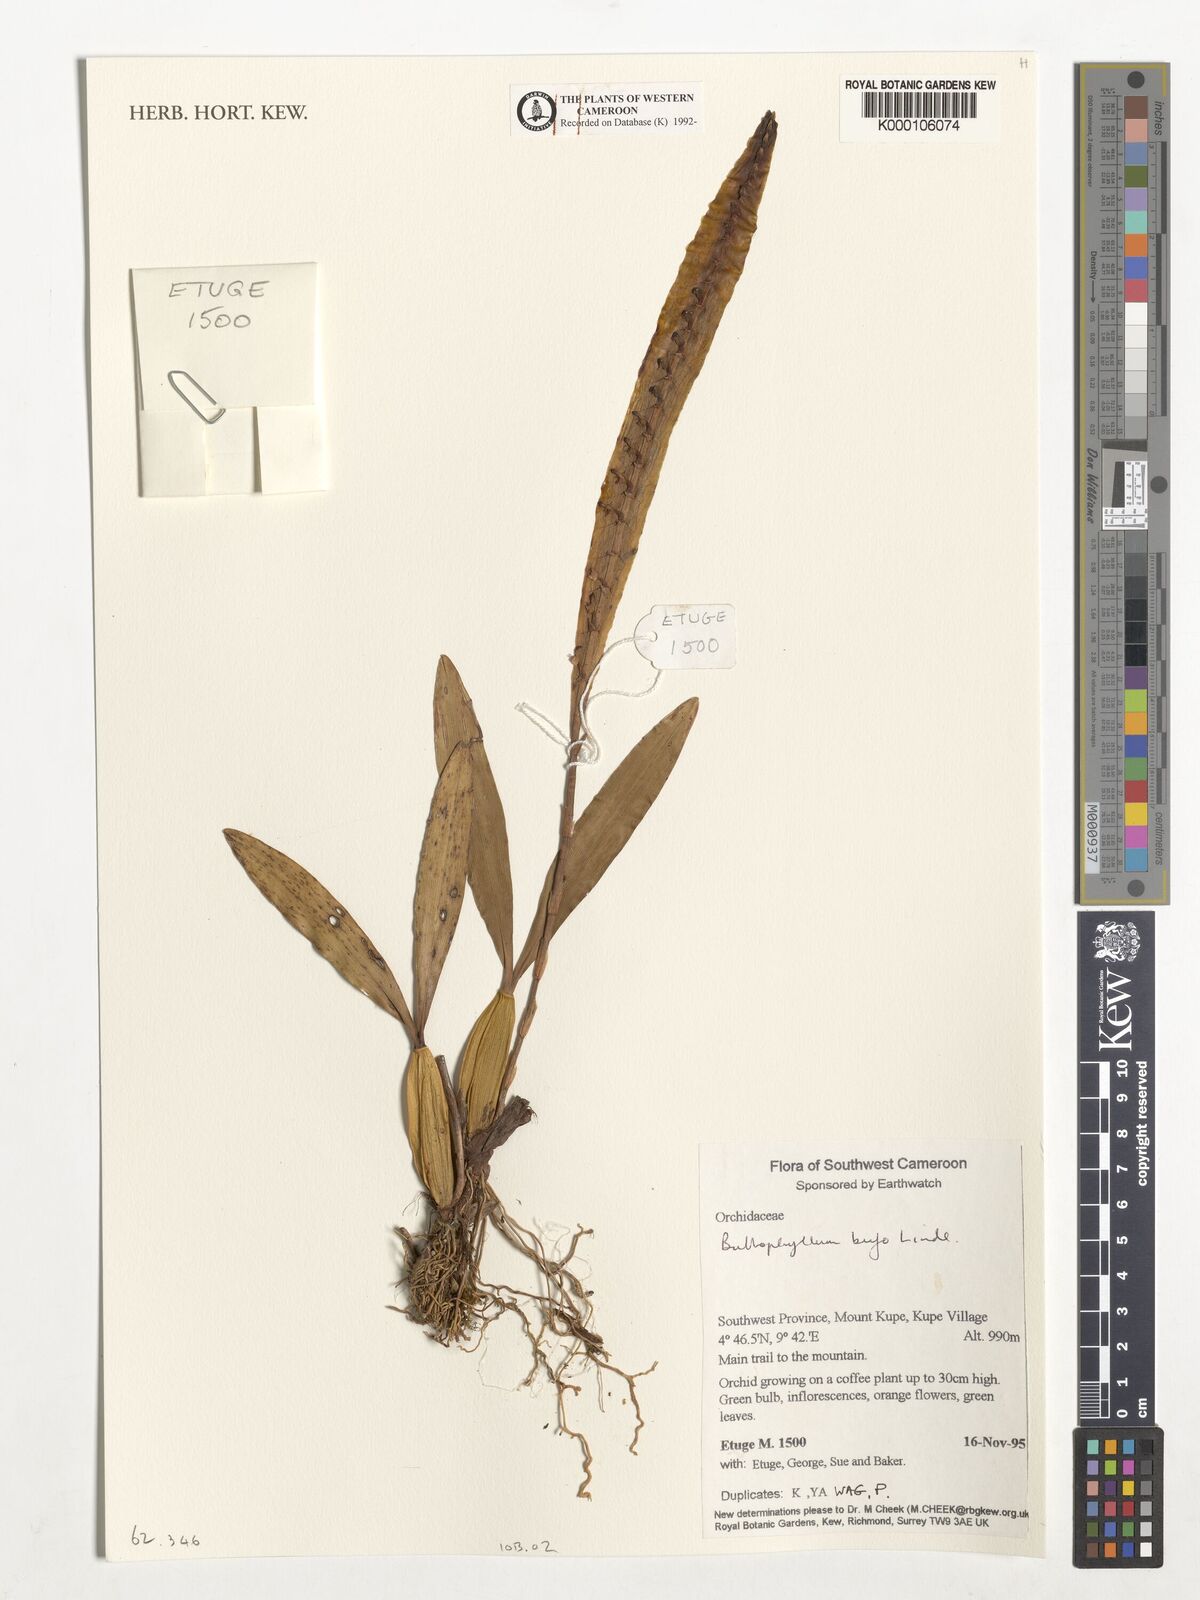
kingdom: Plantae
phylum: Tracheophyta
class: Liliopsida
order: Asparagales
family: Orchidaceae
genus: Bulbophyllum
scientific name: Bulbophyllum falcatum
